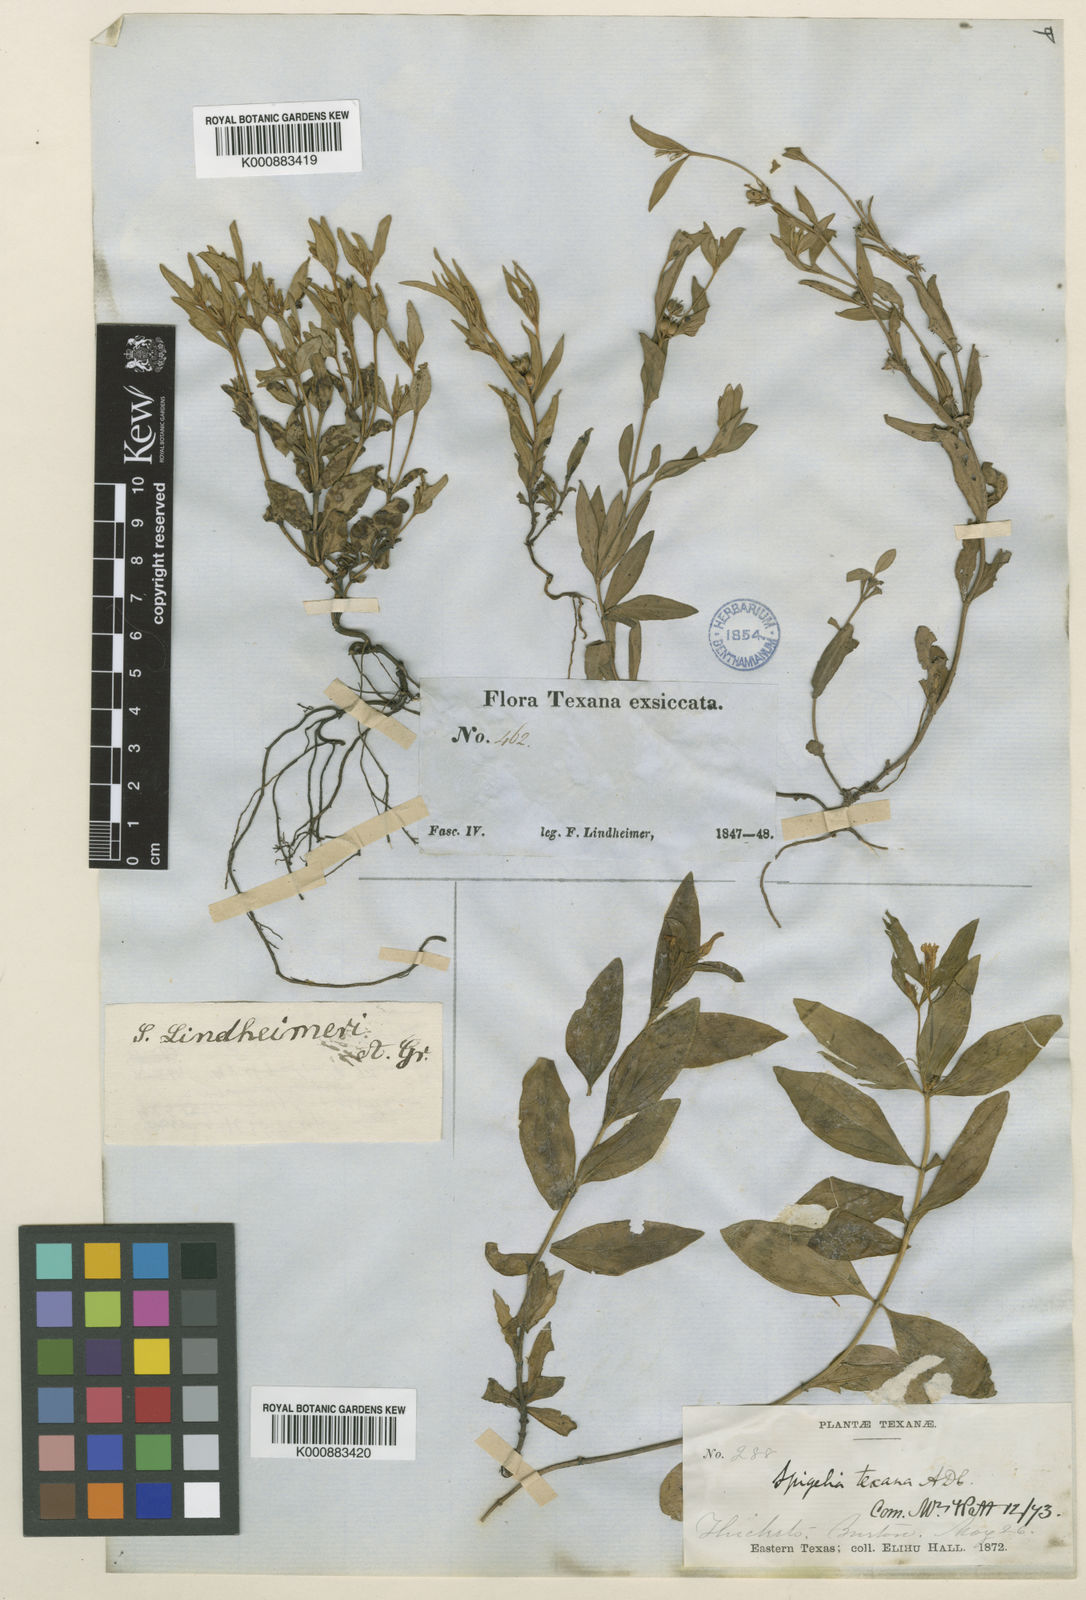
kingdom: Plantae
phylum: Tracheophyta
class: Magnoliopsida
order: Gentianales
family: Loganiaceae
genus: Spigelia
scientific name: Spigelia hedyotidea
